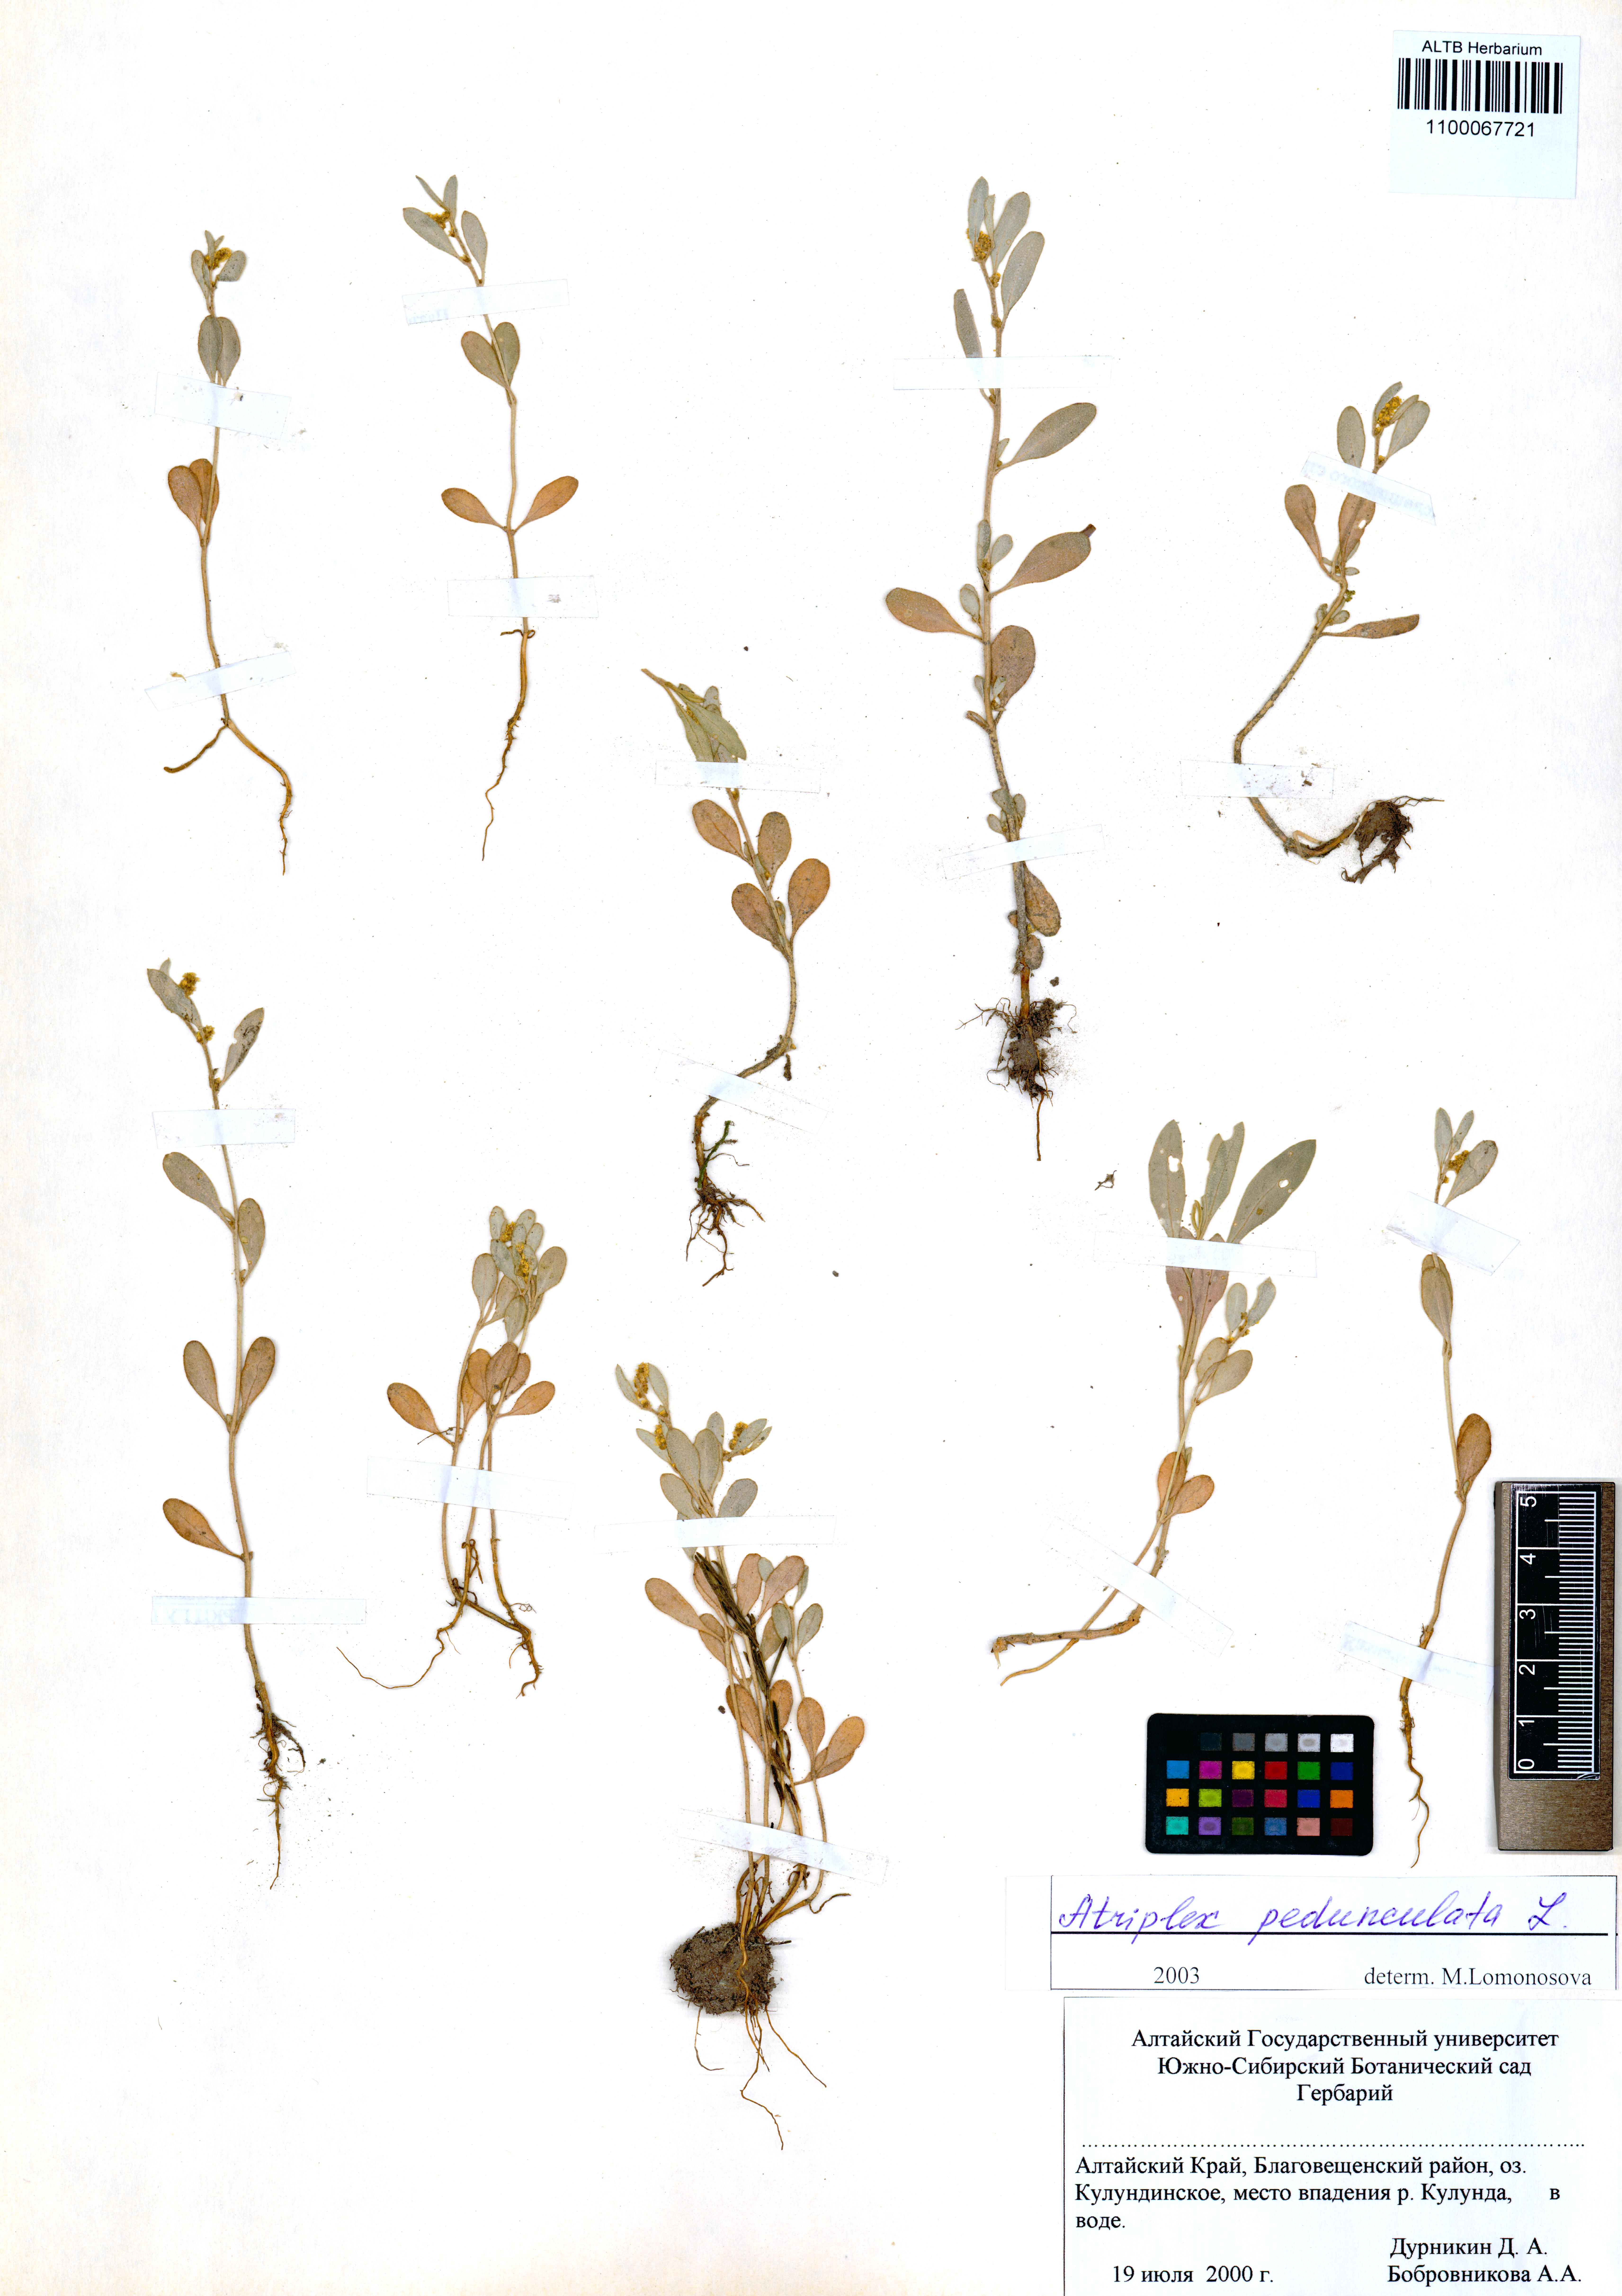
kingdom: Plantae
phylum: Tracheophyta
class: Magnoliopsida
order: Caryophyllales
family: Amaranthaceae
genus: Halimione
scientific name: Halimione pedunculata
